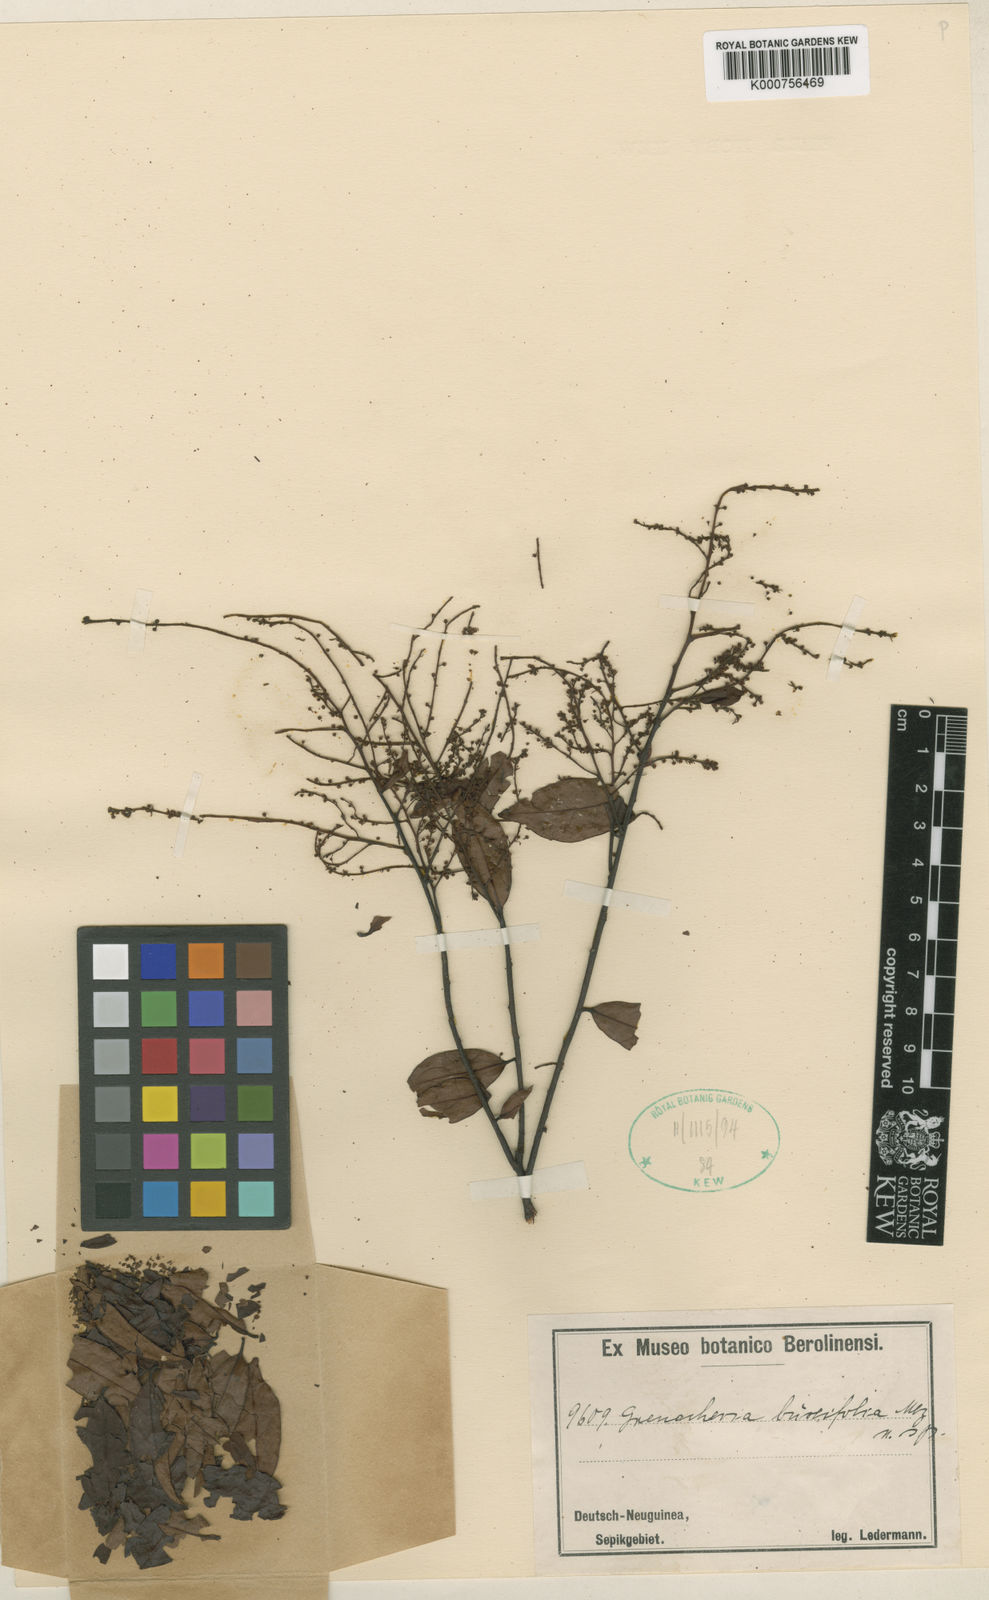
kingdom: Plantae
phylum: Tracheophyta
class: Magnoliopsida
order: Ericales
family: Primulaceae
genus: Grenacheria
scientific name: Grenacheria buxifolia
